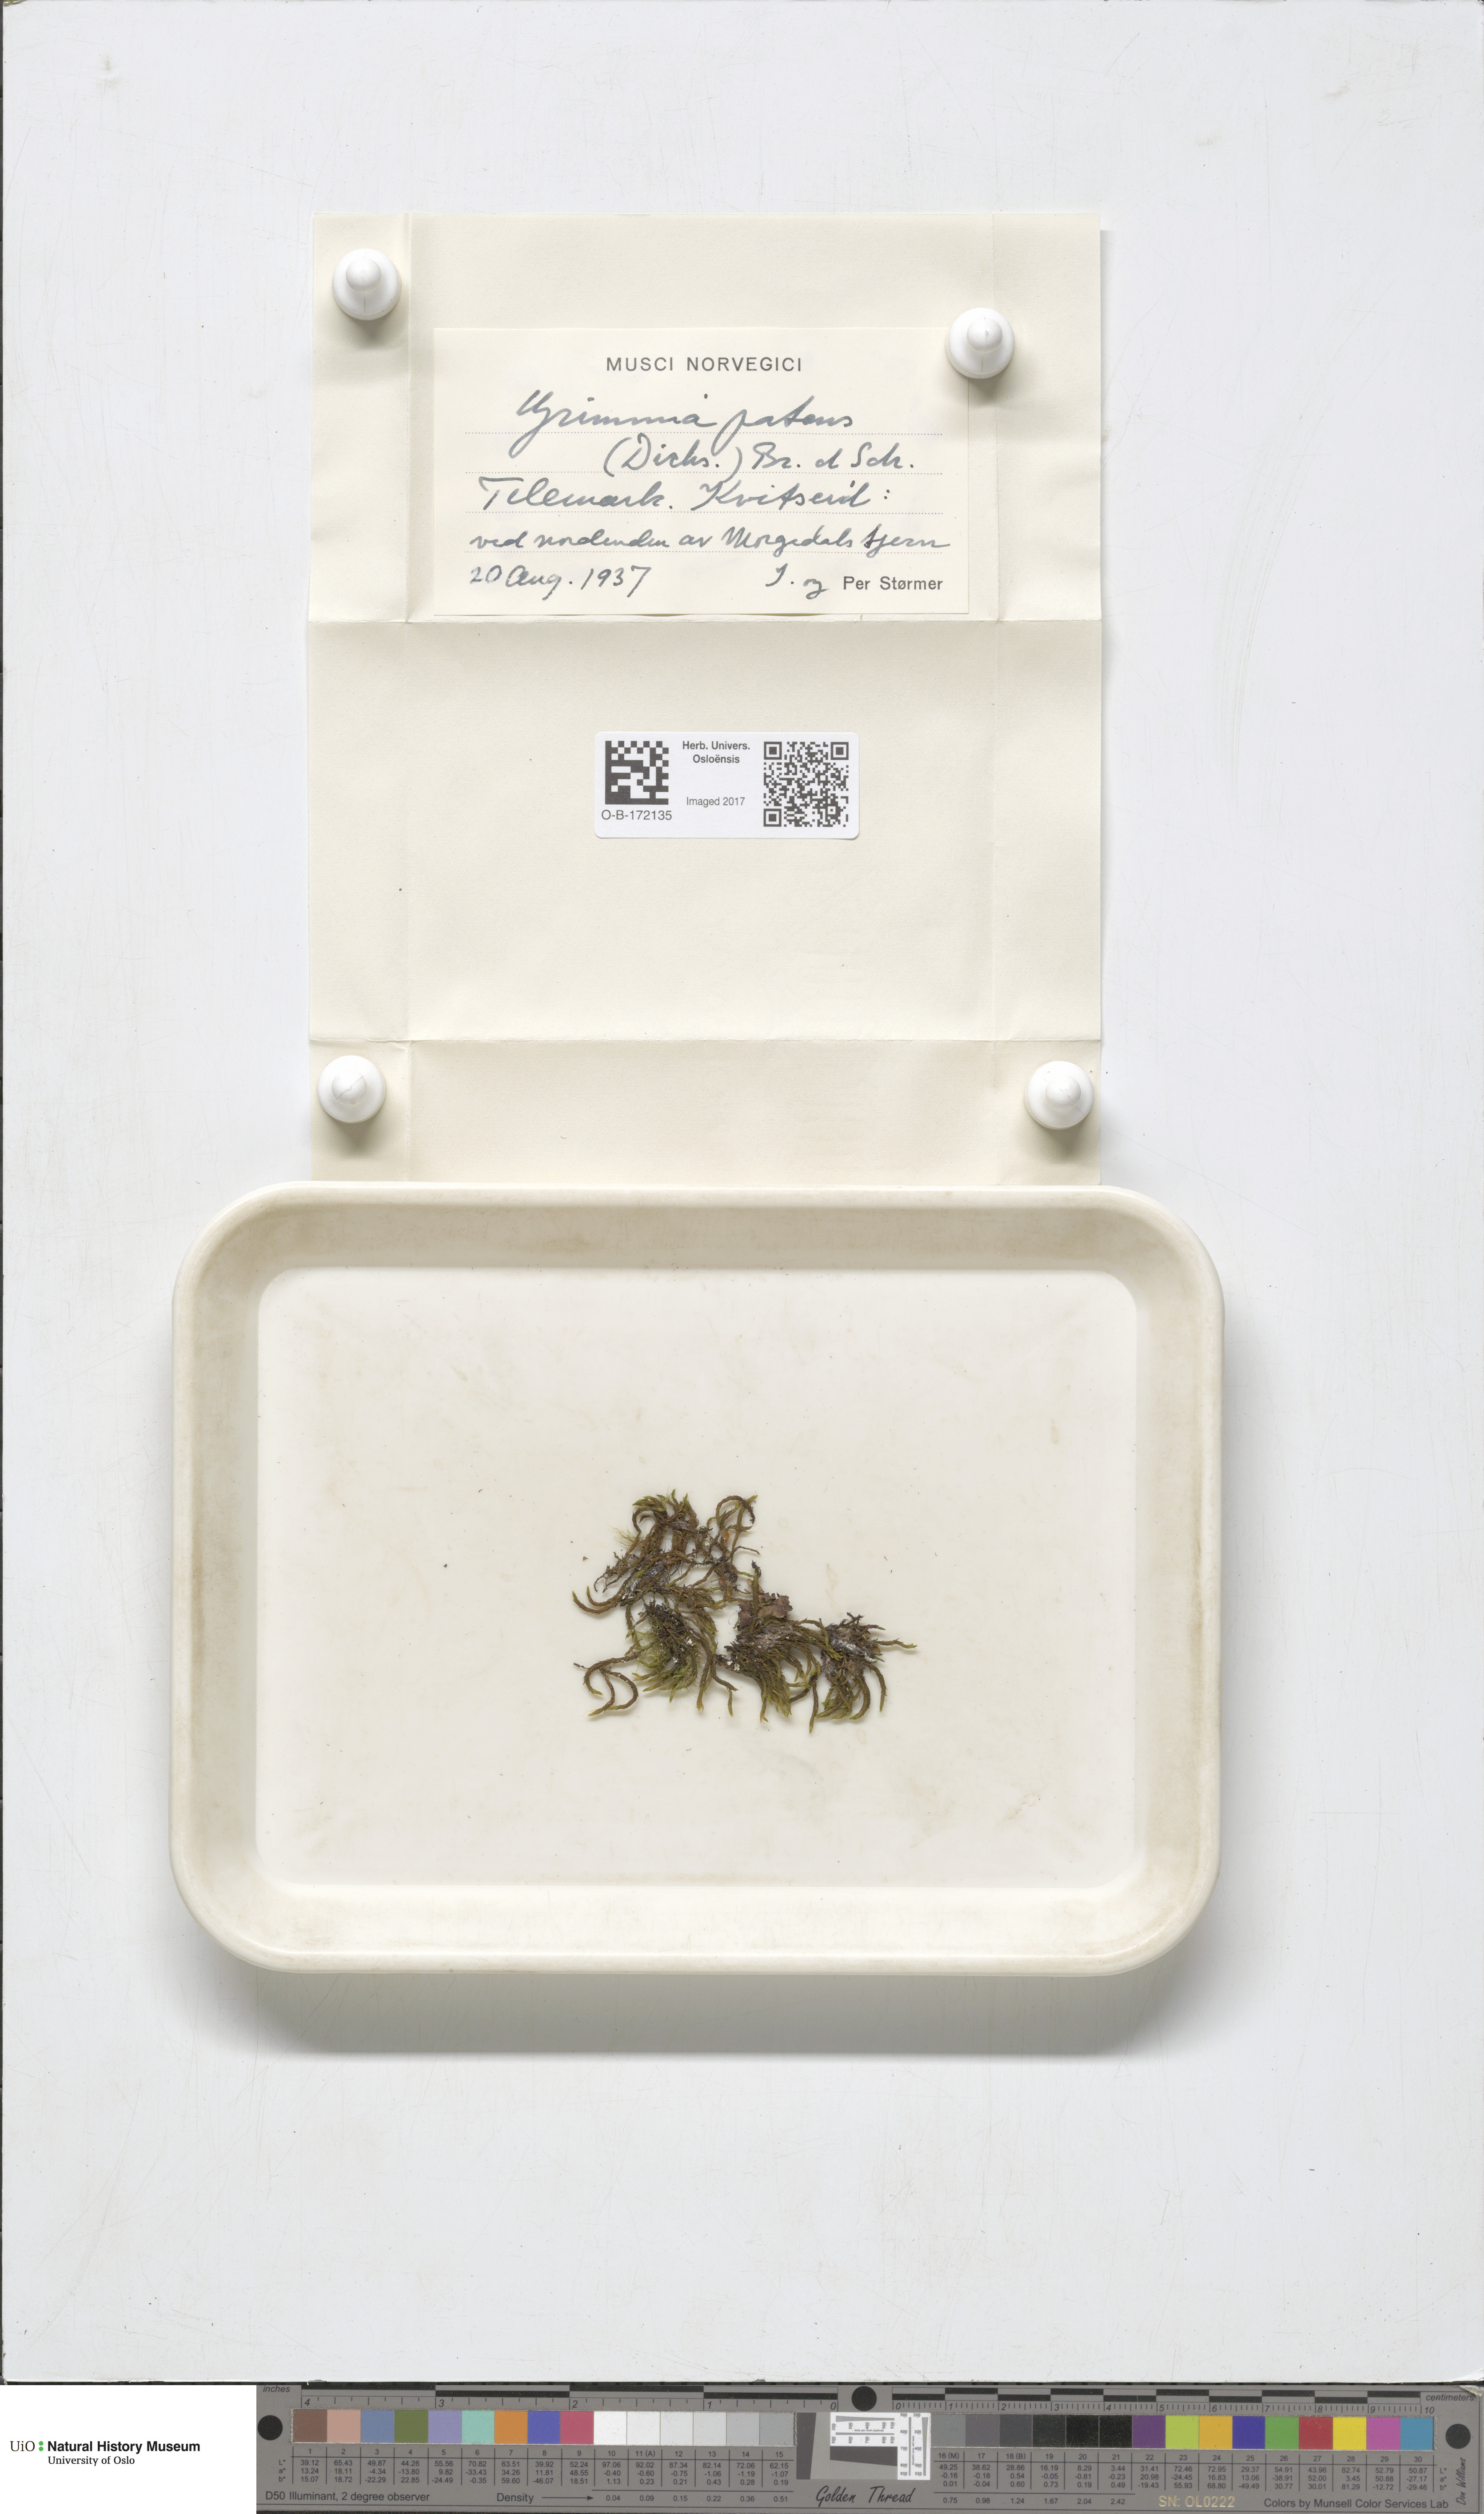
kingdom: Plantae
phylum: Bryophyta
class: Bryopsida
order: Grimmiales
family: Grimmiaceae
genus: Grimmia
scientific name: Grimmia ramondii
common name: Spreading-leaved grimmia
